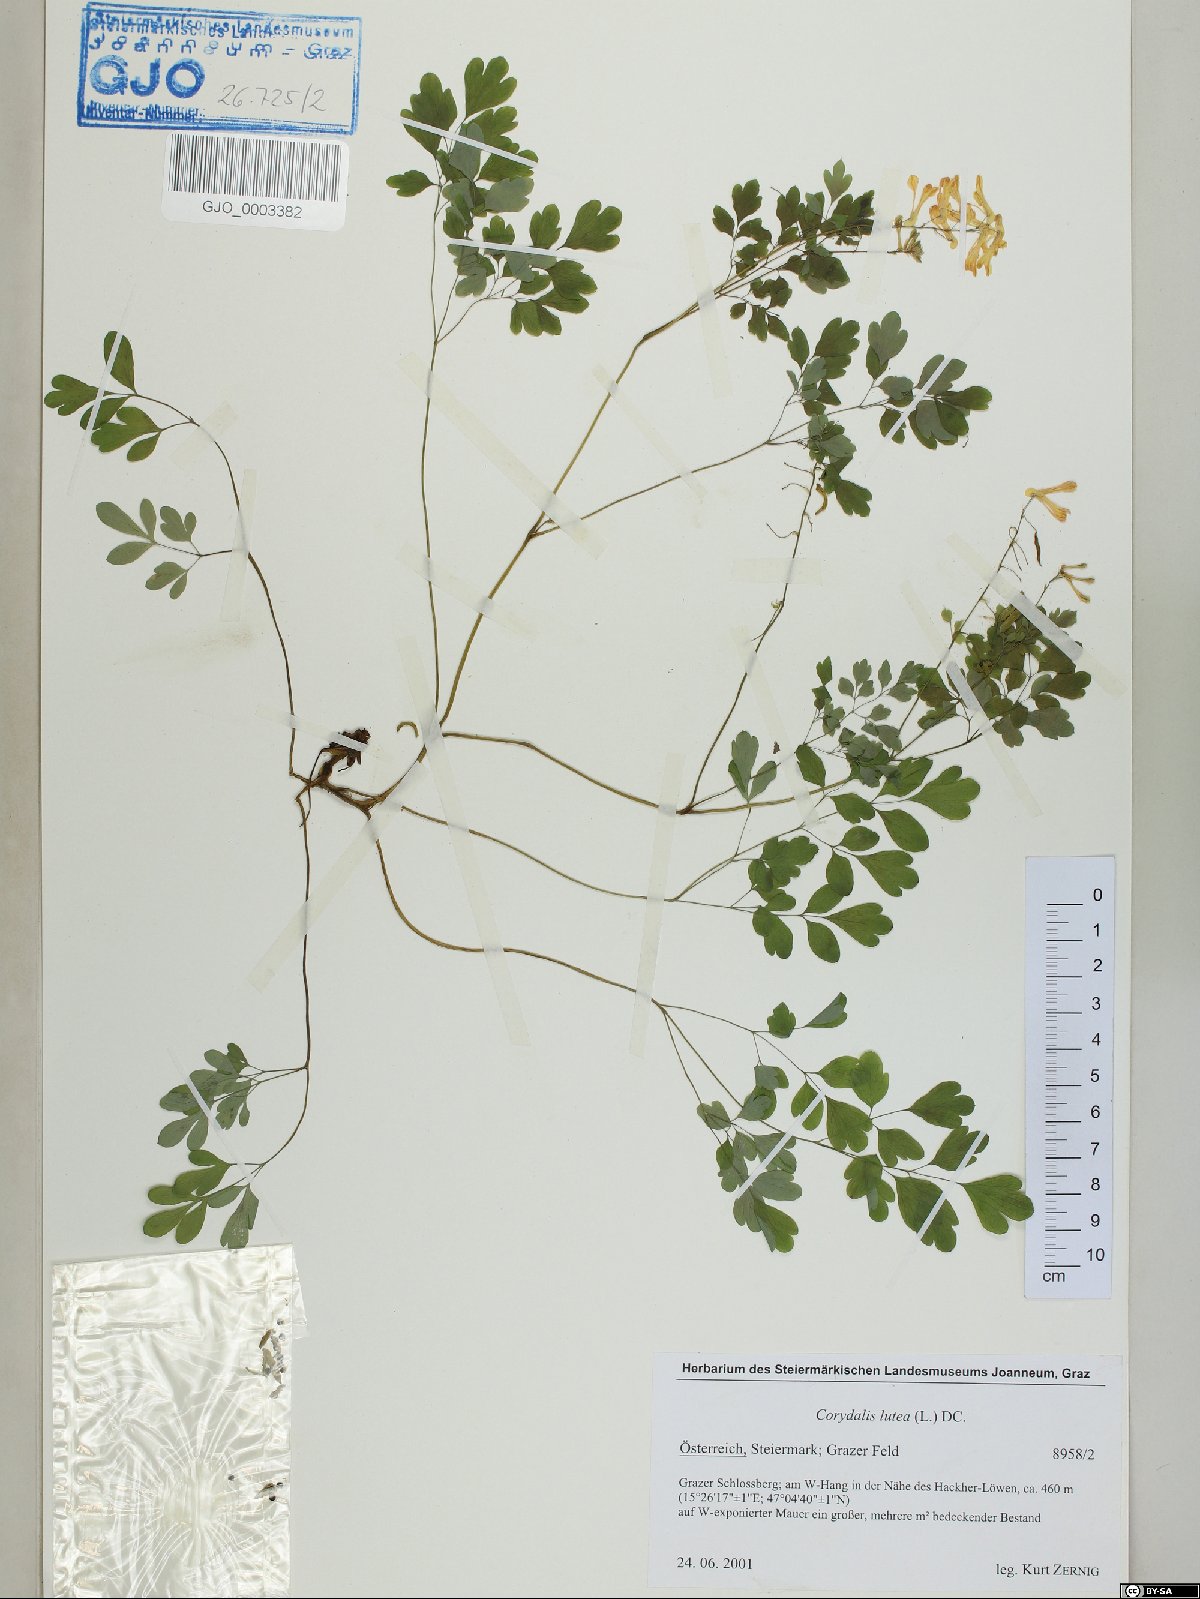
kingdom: Plantae
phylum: Tracheophyta
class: Magnoliopsida
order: Ranunculales
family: Papaveraceae
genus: Pseudofumaria
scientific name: Pseudofumaria lutea
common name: Yellow corydalis
